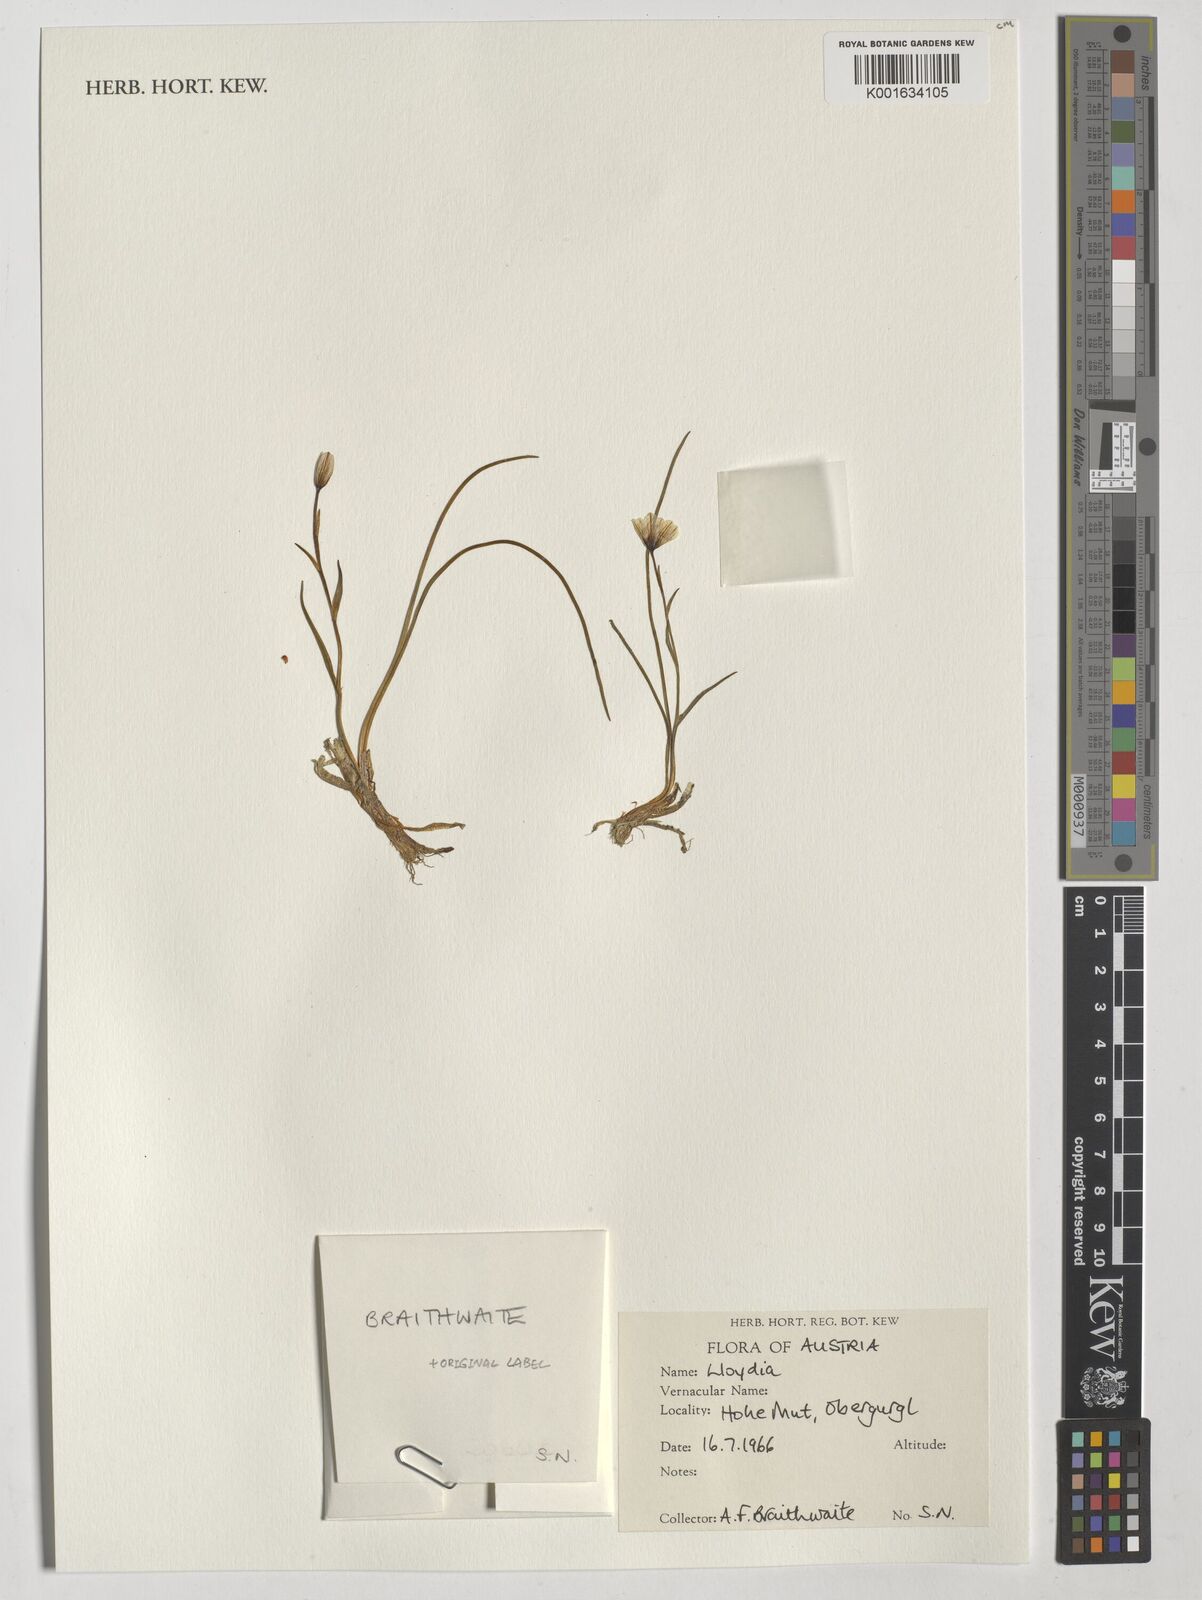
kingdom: Plantae
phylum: Tracheophyta
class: Liliopsida
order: Liliales
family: Liliaceae
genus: Lloydia
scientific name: Lloydia
